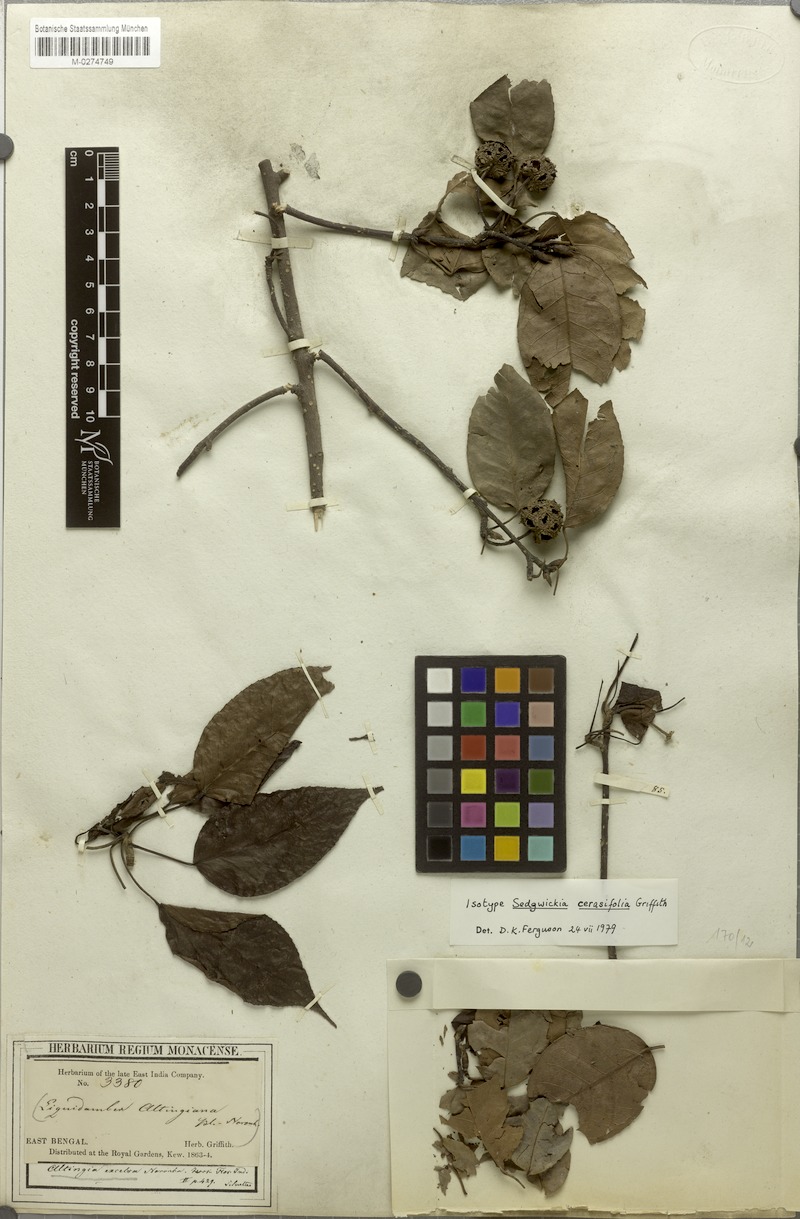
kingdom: Plantae
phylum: Tracheophyta
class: Magnoliopsida
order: Saxifragales
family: Altingiaceae
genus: Liquidambar
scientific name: Liquidambar excelsa
